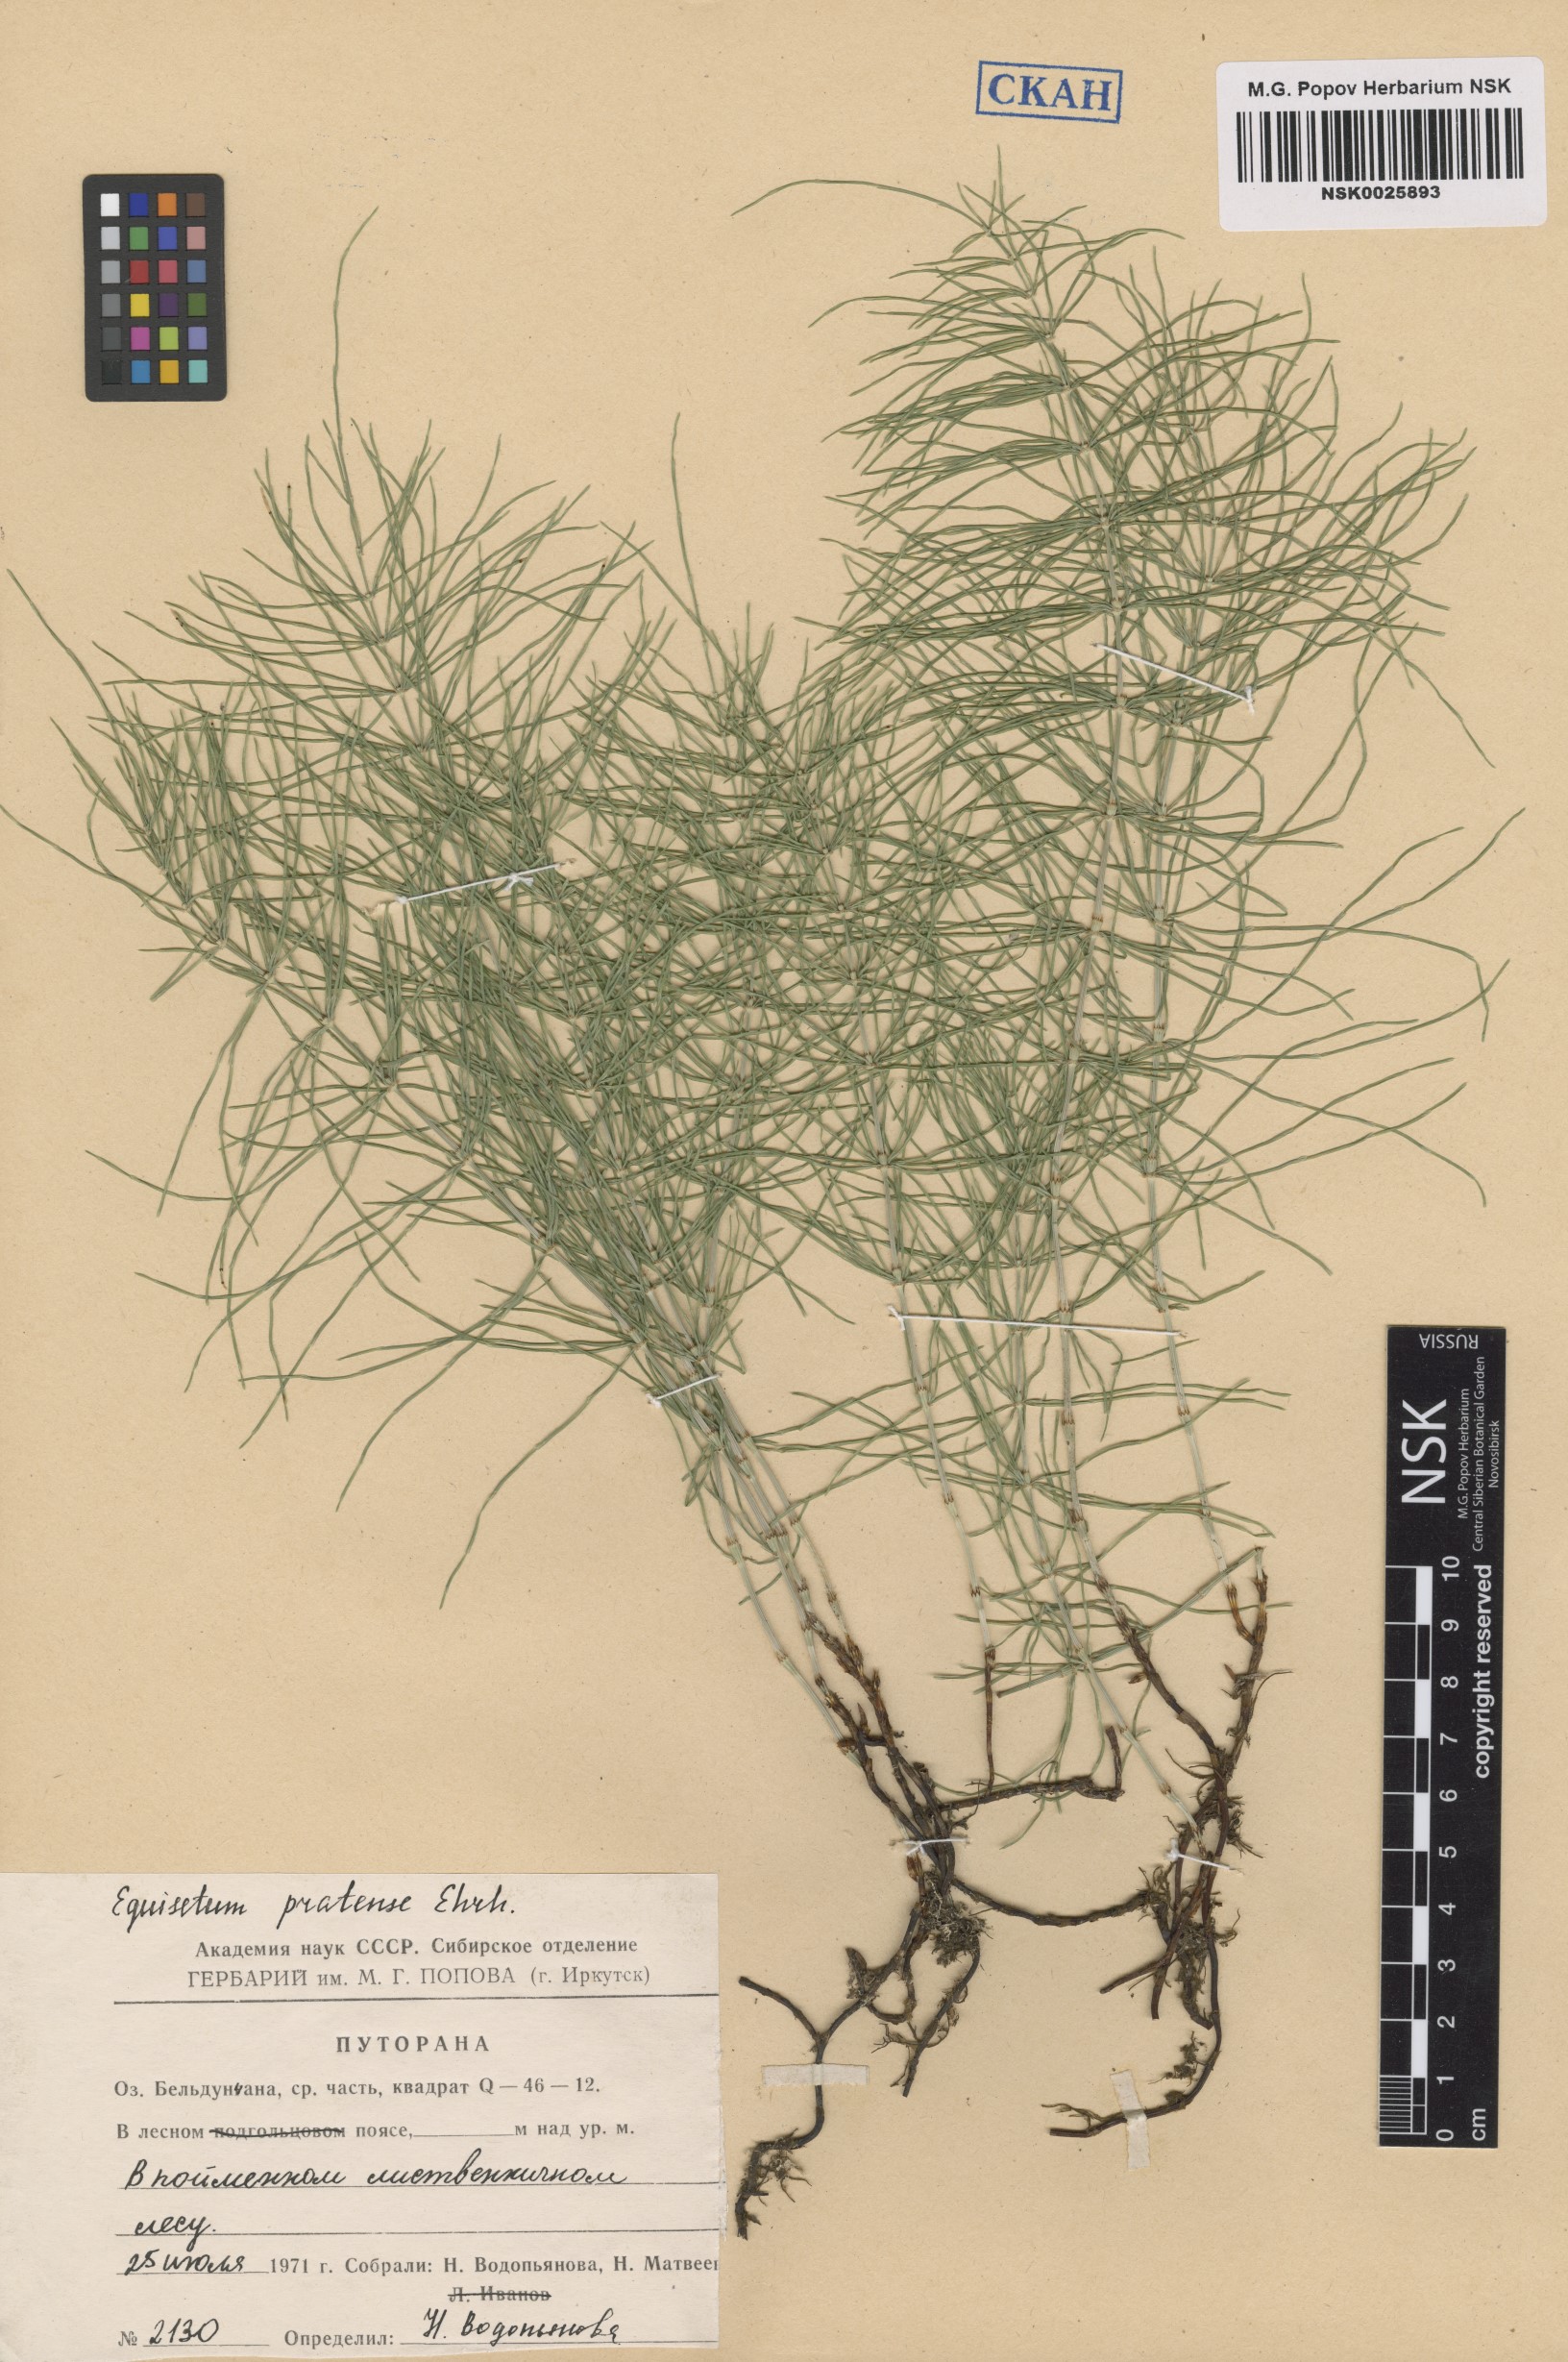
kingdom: Plantae
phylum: Tracheophyta
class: Polypodiopsida
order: Equisetales
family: Equisetaceae
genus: Equisetum
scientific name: Equisetum pratense
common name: Meadow horsetail
